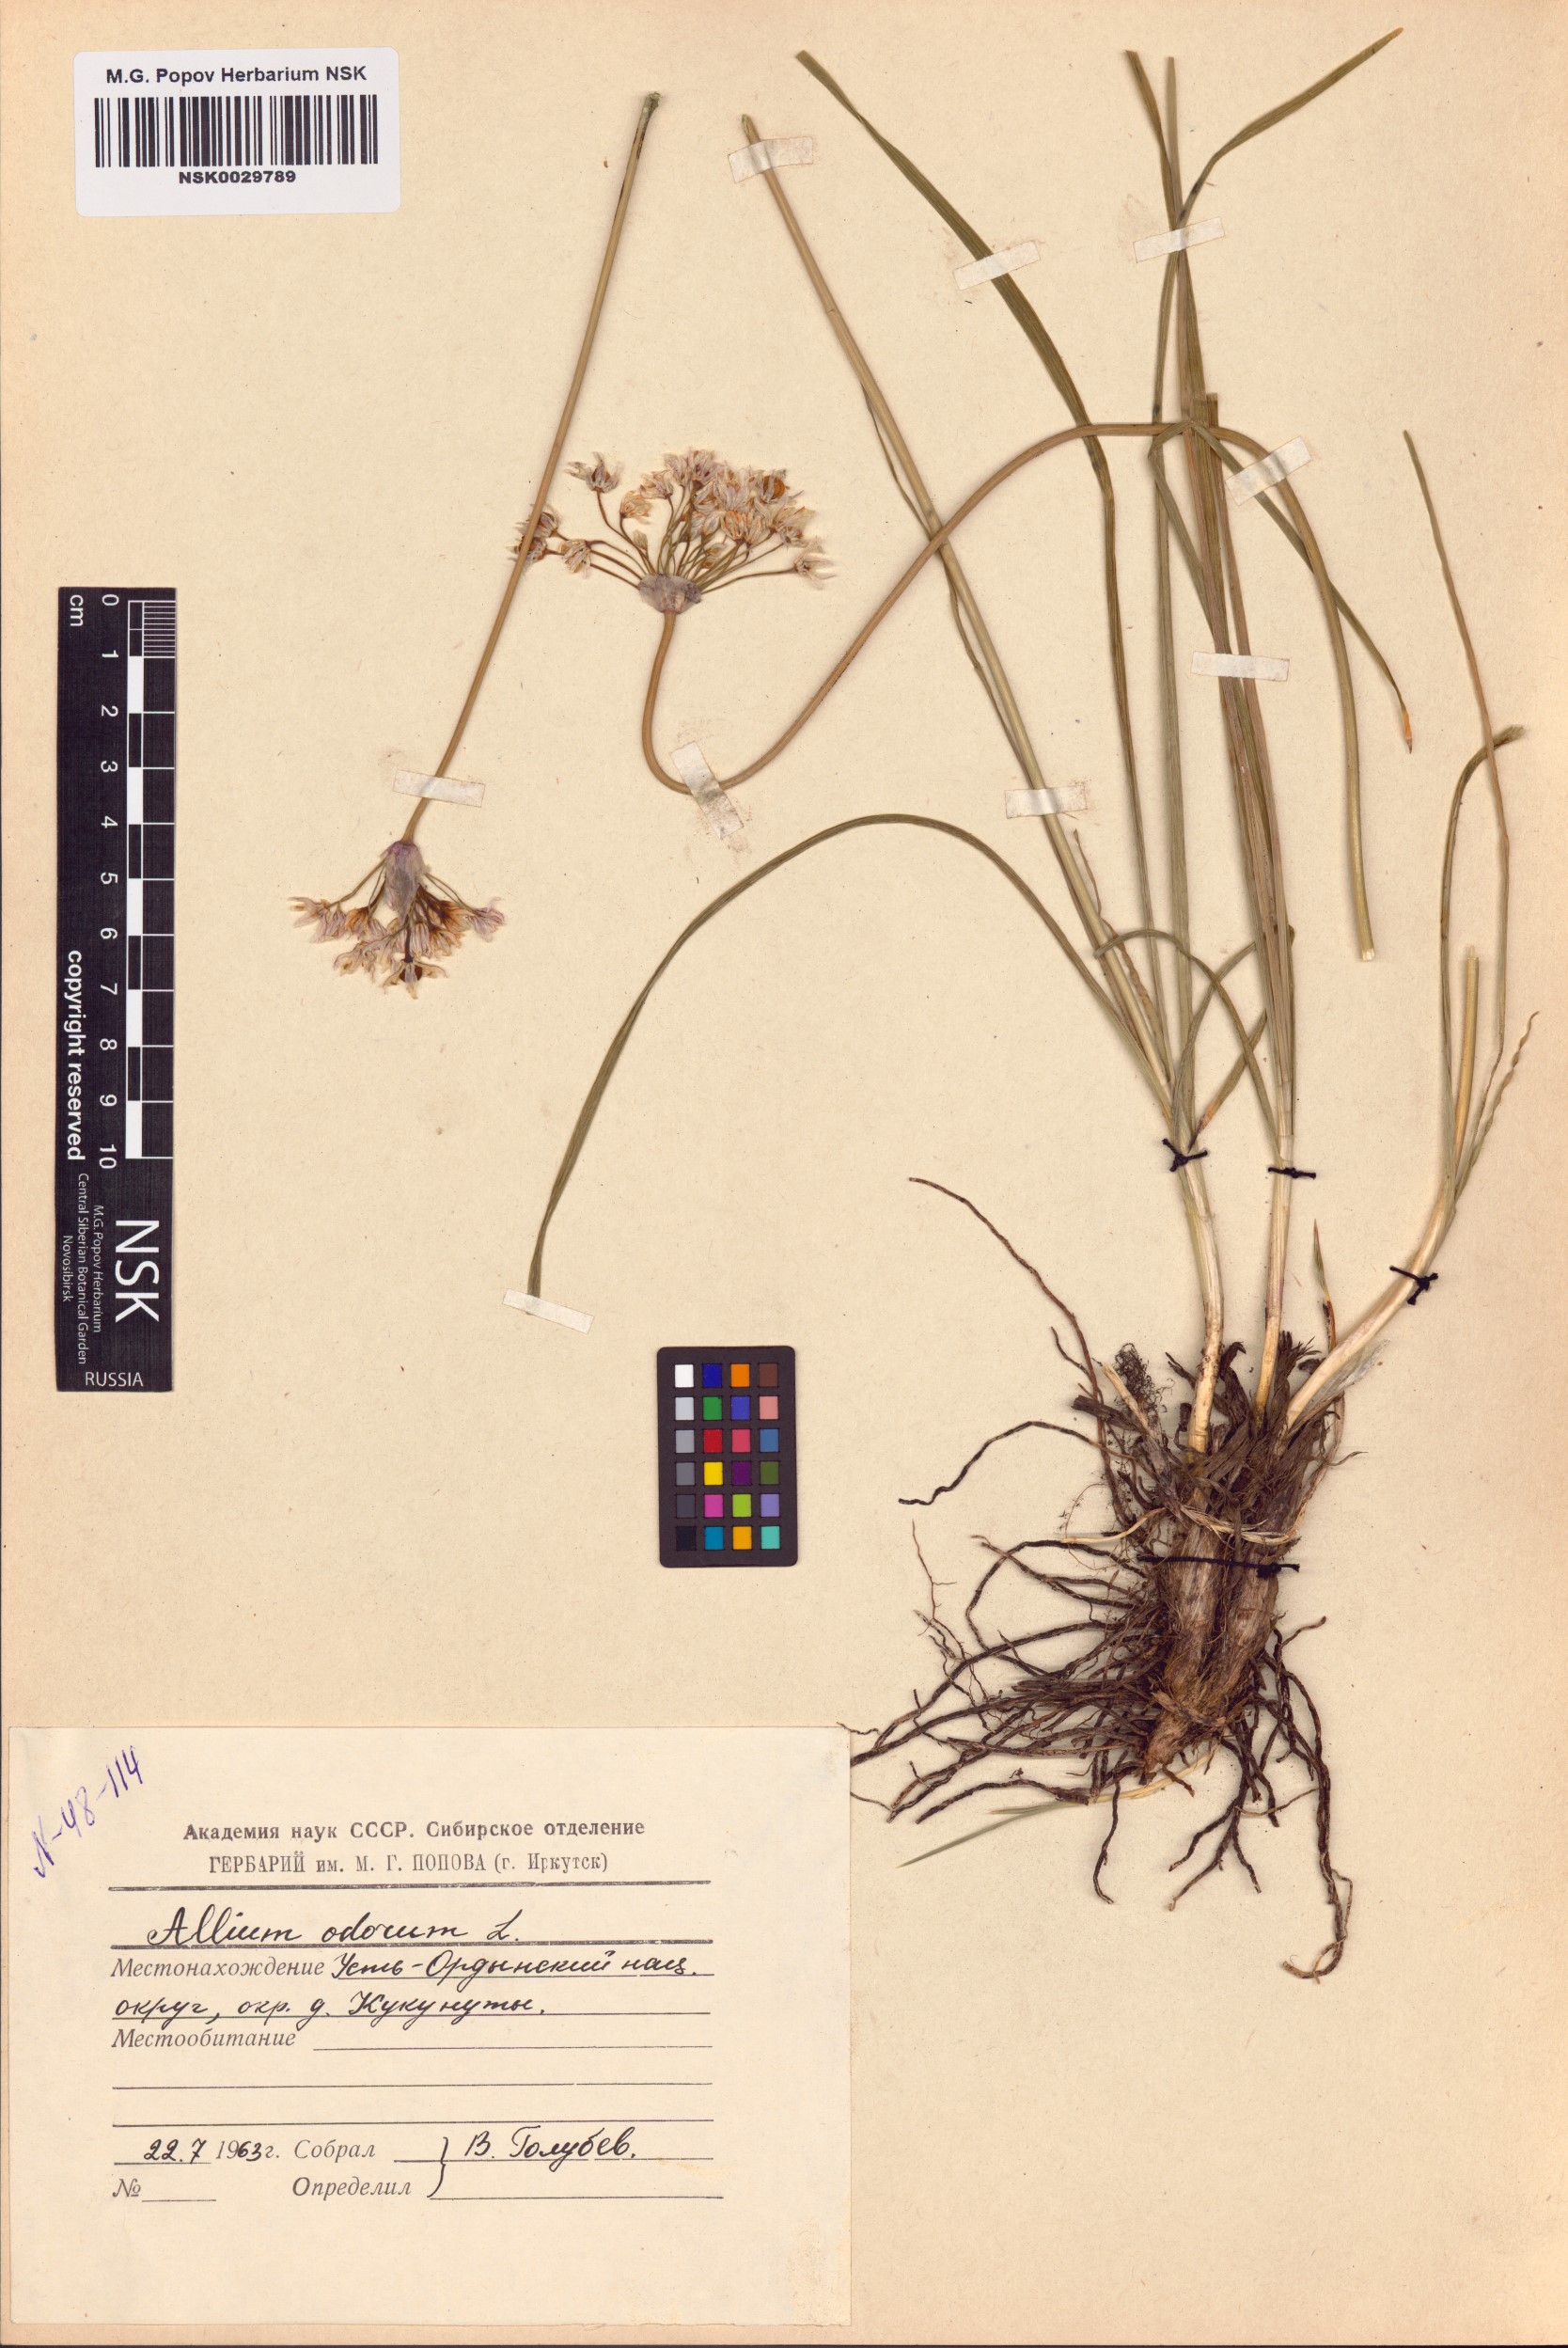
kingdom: Plantae
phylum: Tracheophyta
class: Liliopsida
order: Asparagales
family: Amaryllidaceae
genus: Allium
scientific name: Allium ramosum
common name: Fragrant garlic
